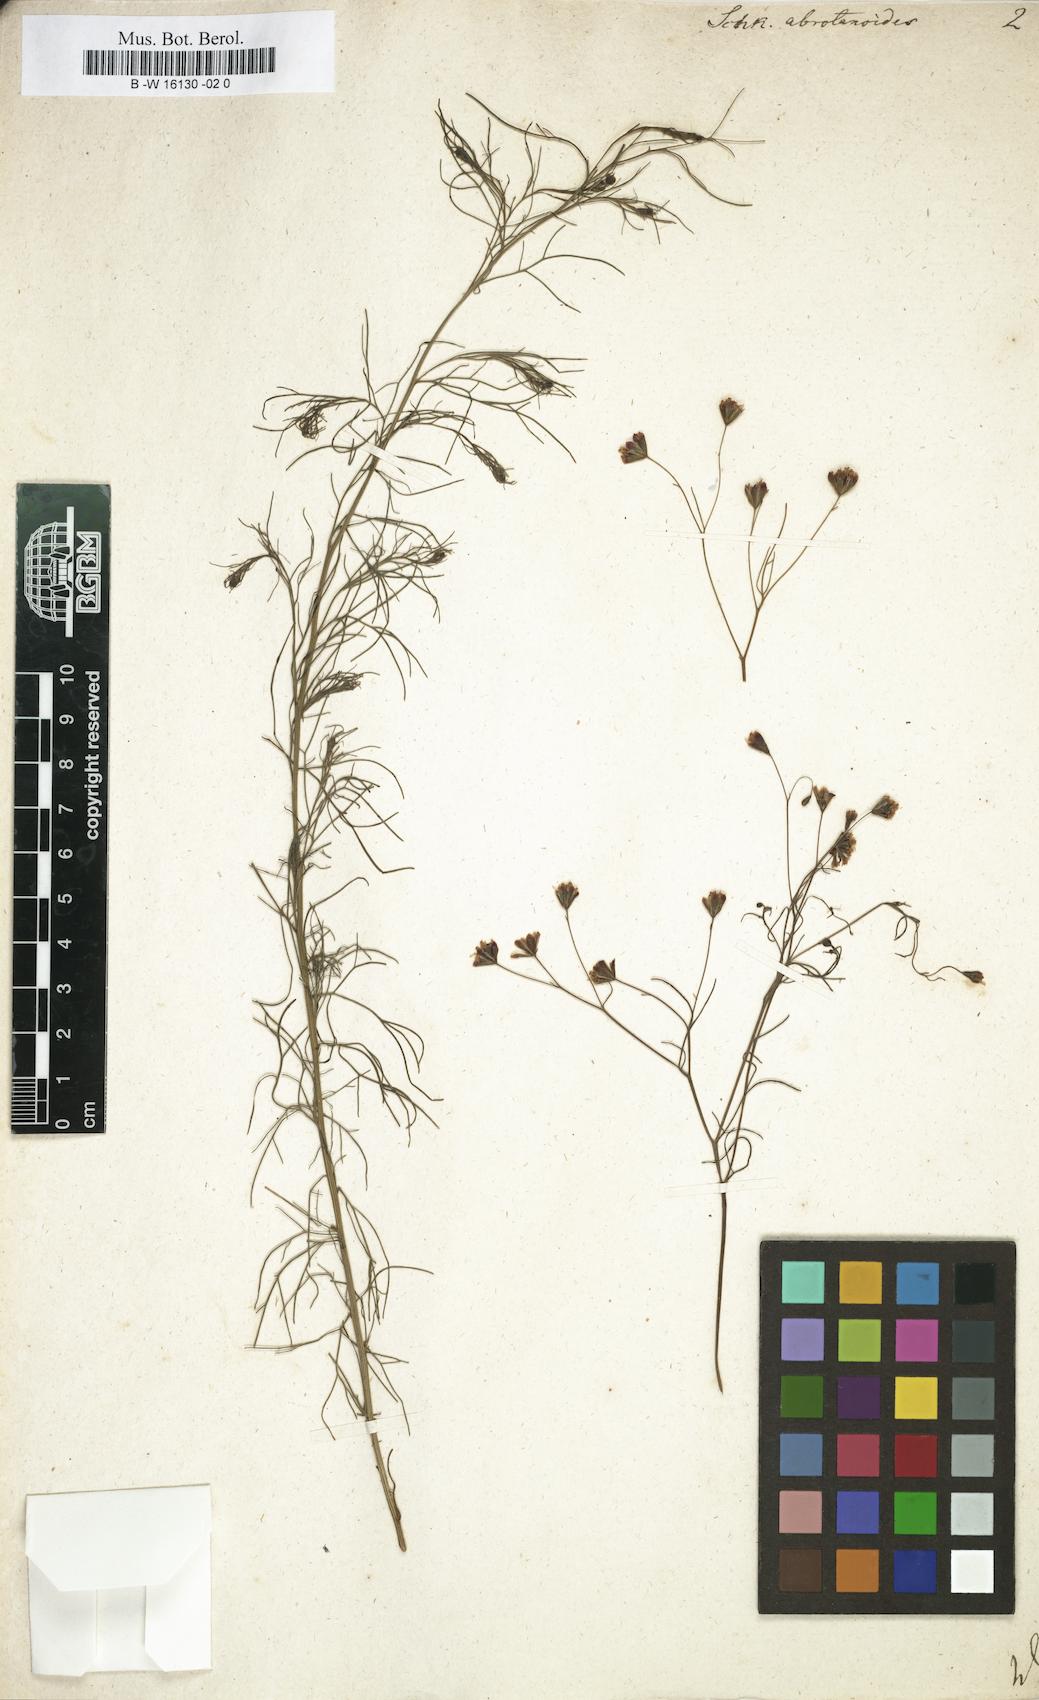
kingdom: Plantae
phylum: Tracheophyta
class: Magnoliopsida
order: Asterales
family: Asteraceae
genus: Schkuhria
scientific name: Schkuhria pinnata
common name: Dwarf marigold
